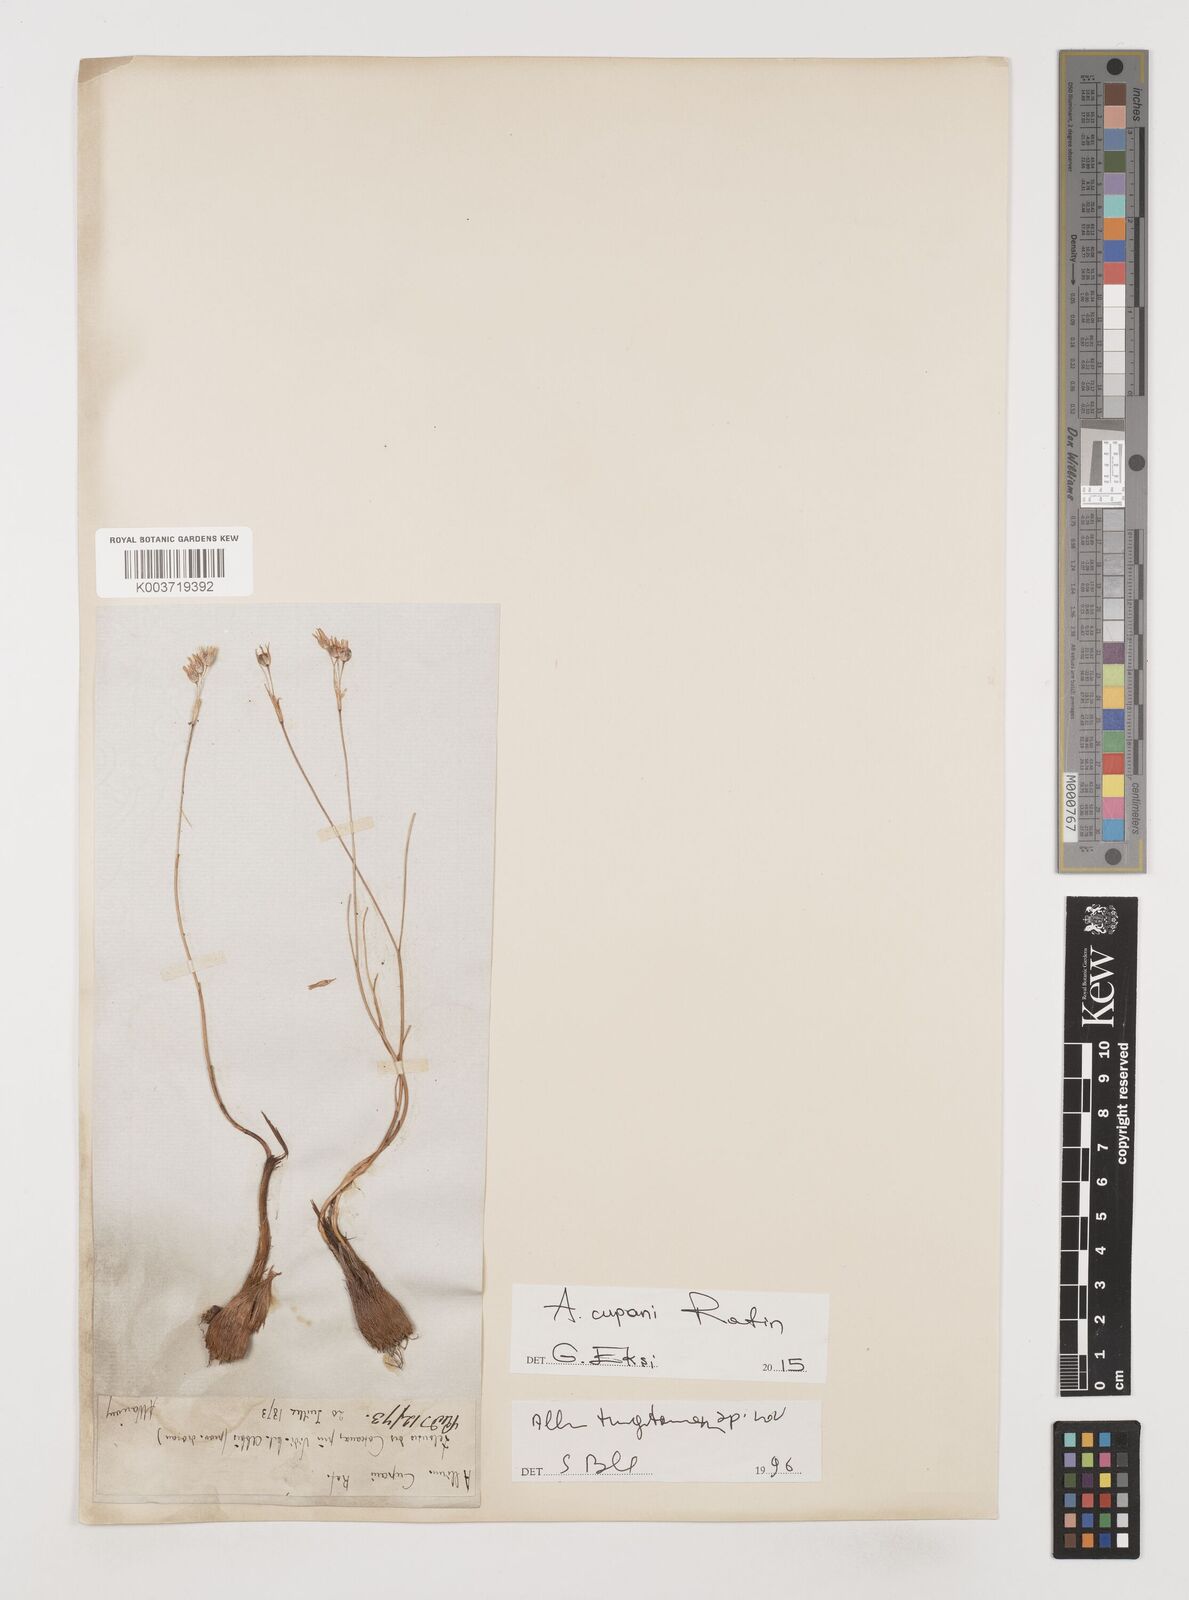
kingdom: Plantae
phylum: Tracheophyta
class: Liliopsida
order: Asparagales
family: Amaryllidaceae
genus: Allium
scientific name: Allium cupani
